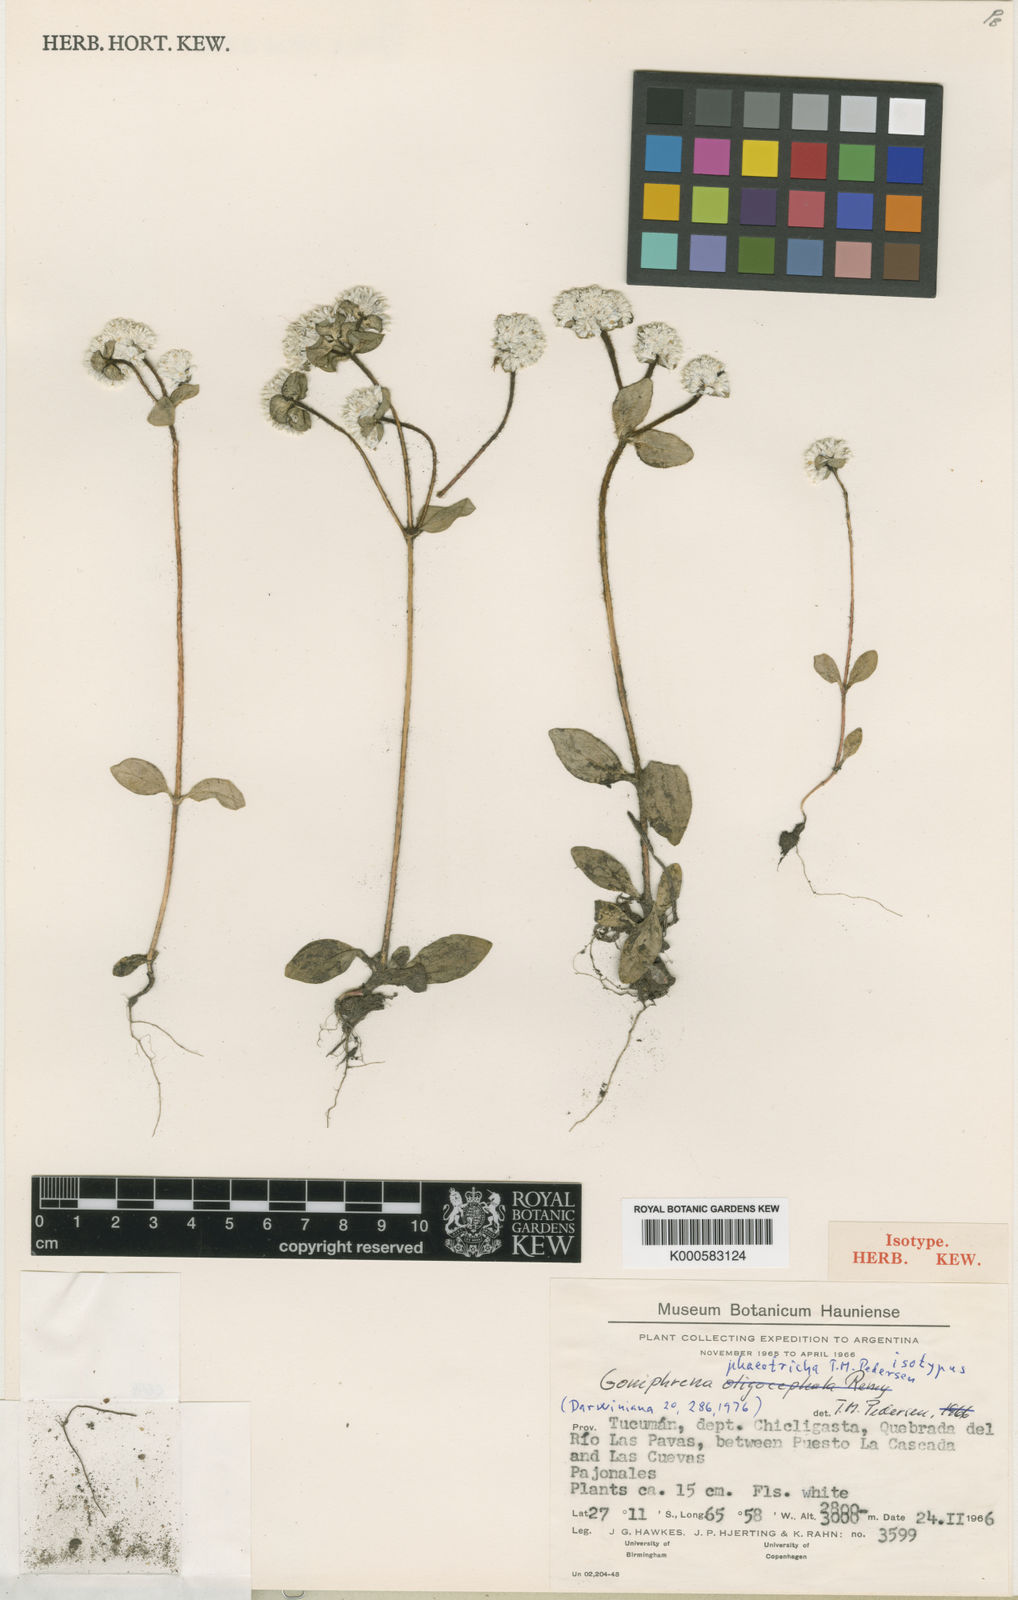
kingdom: Plantae
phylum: Tracheophyta
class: Magnoliopsida
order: Caryophyllales
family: Amaranthaceae
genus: Gomphrena
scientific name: Gomphrena phaeotricha
